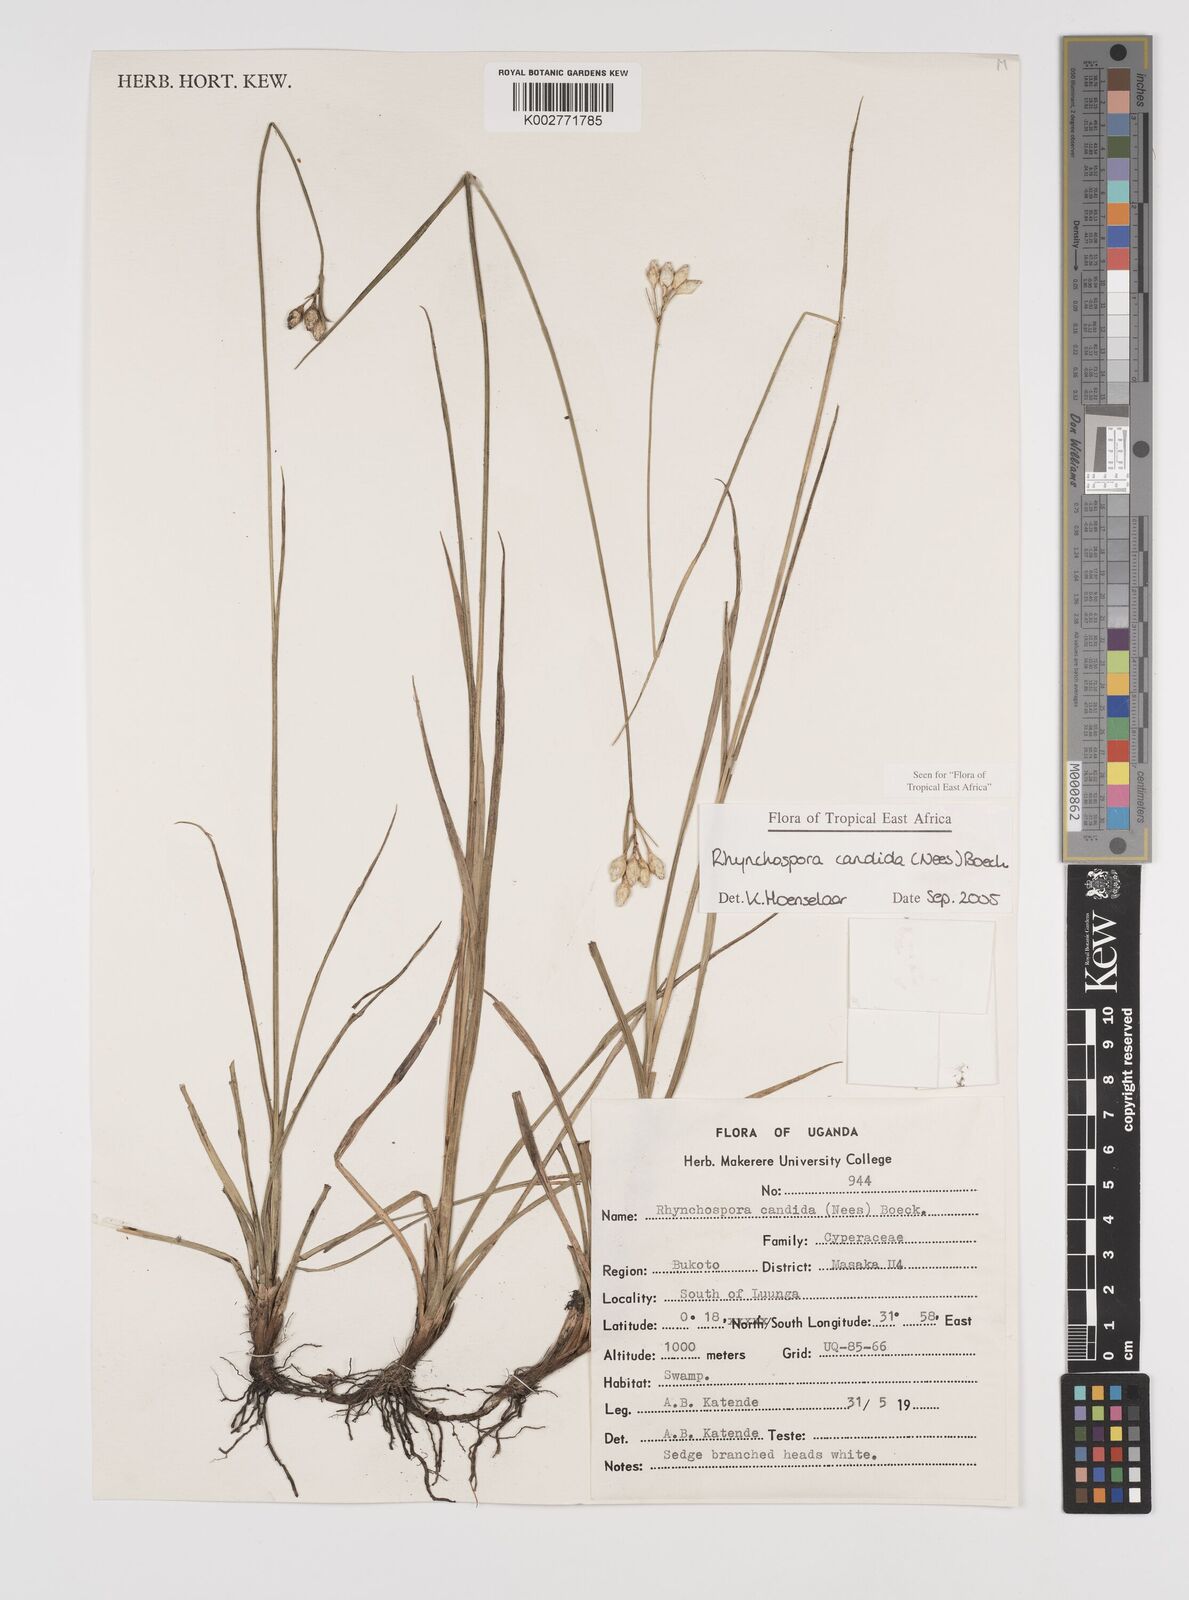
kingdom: Plantae
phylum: Tracheophyta
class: Liliopsida
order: Poales
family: Cyperaceae
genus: Rhynchospora
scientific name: Rhynchospora candida
